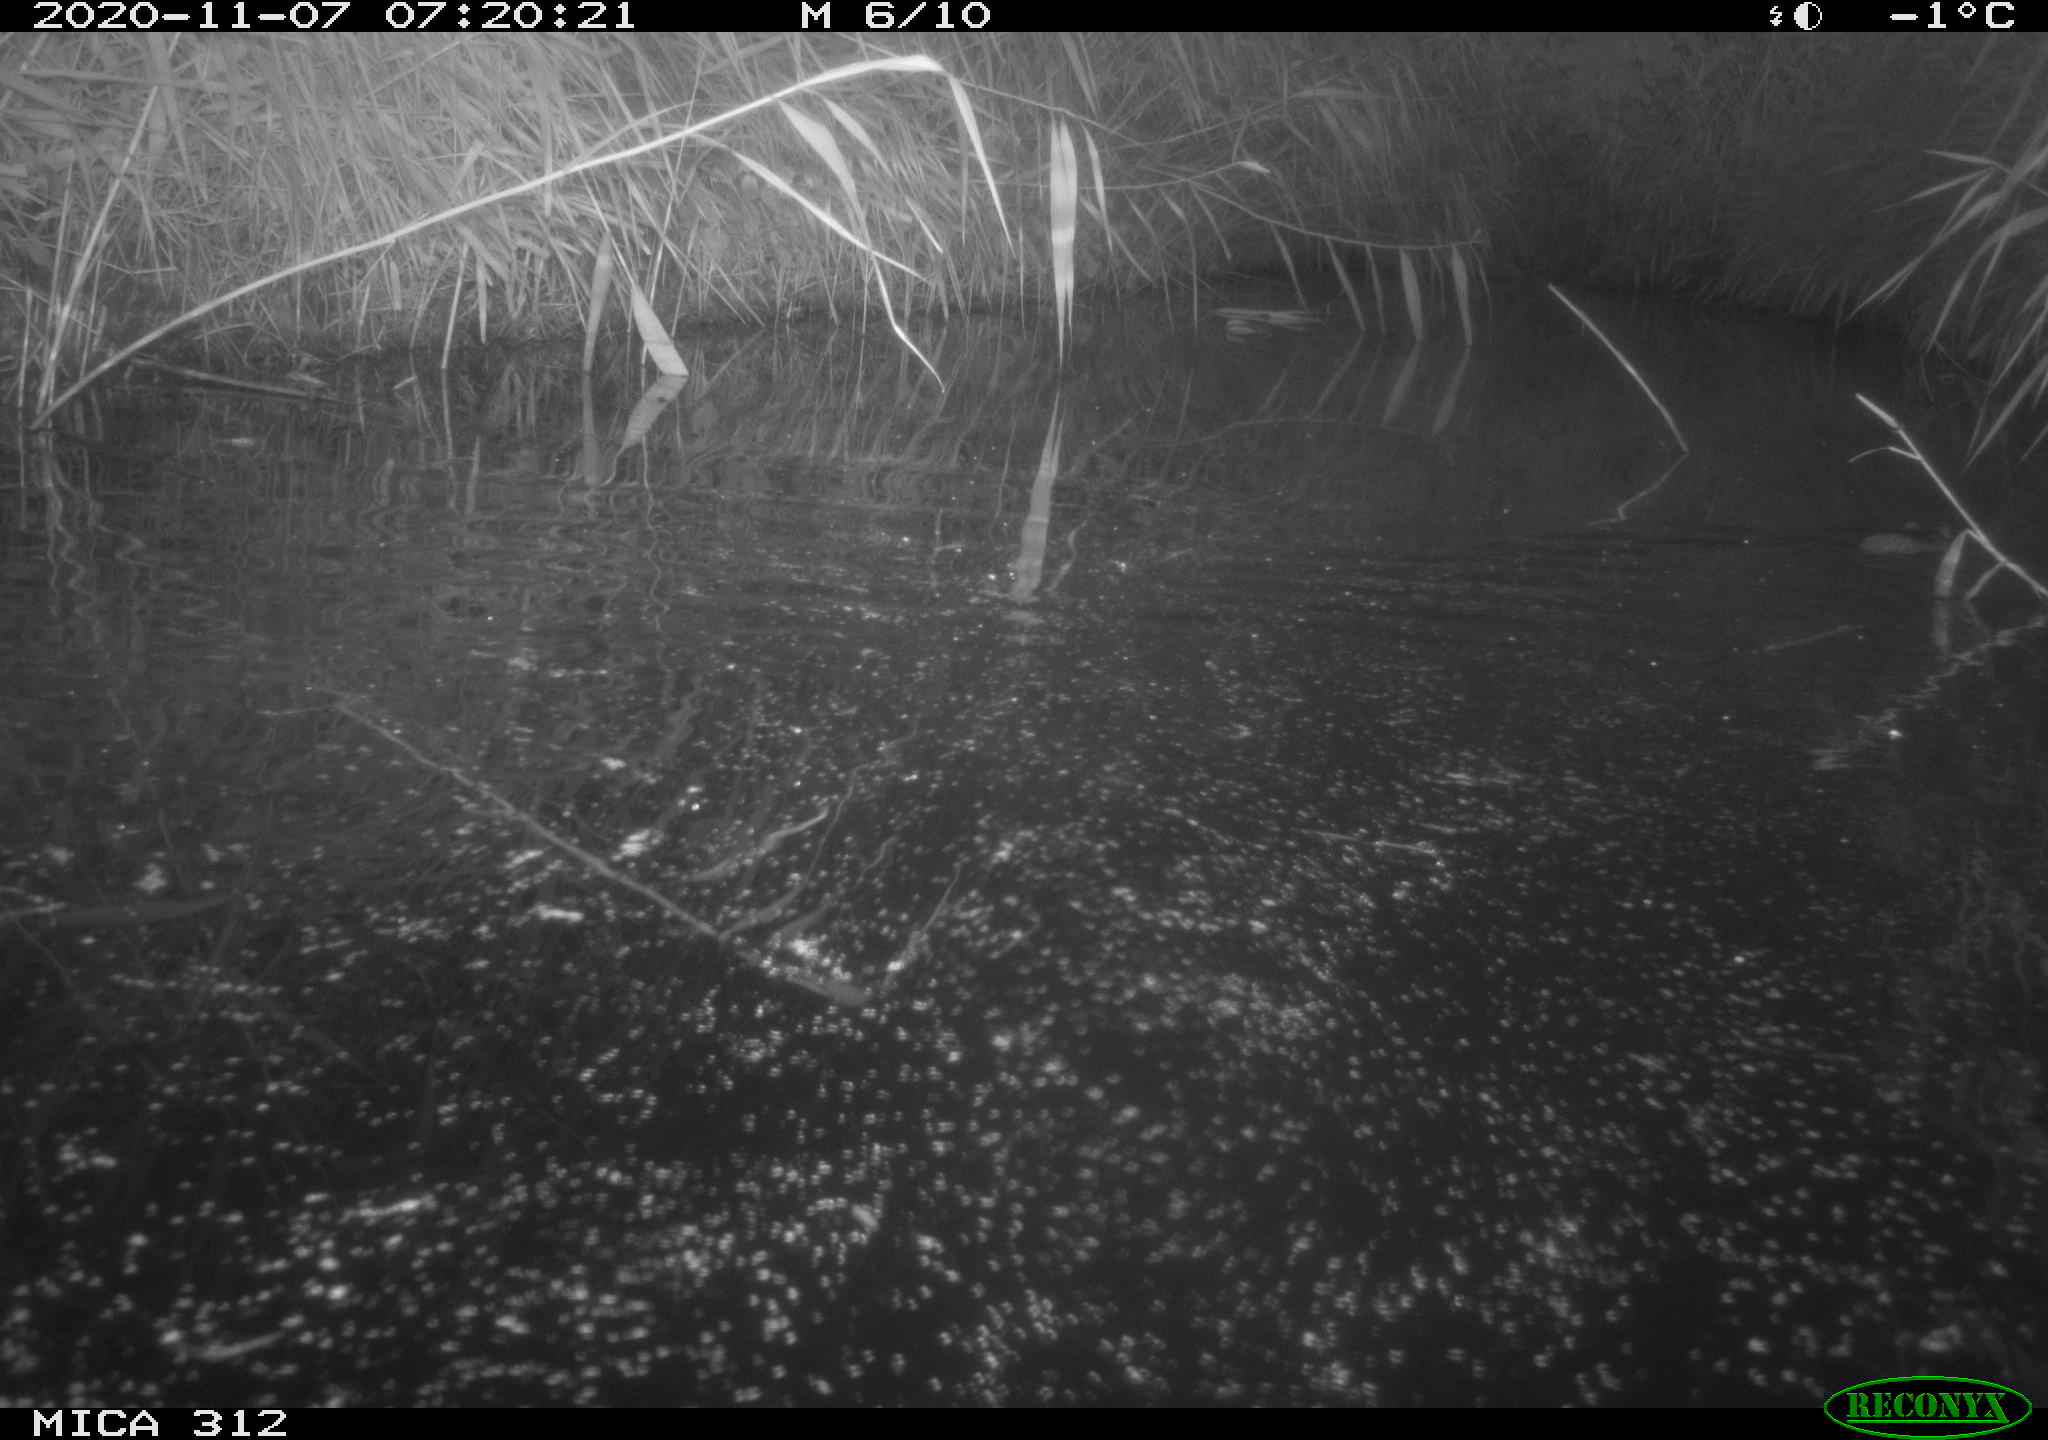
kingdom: Animalia
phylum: Chordata
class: Mammalia
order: Rodentia
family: Muridae
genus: Rattus
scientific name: Rattus norvegicus
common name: Brown rat
